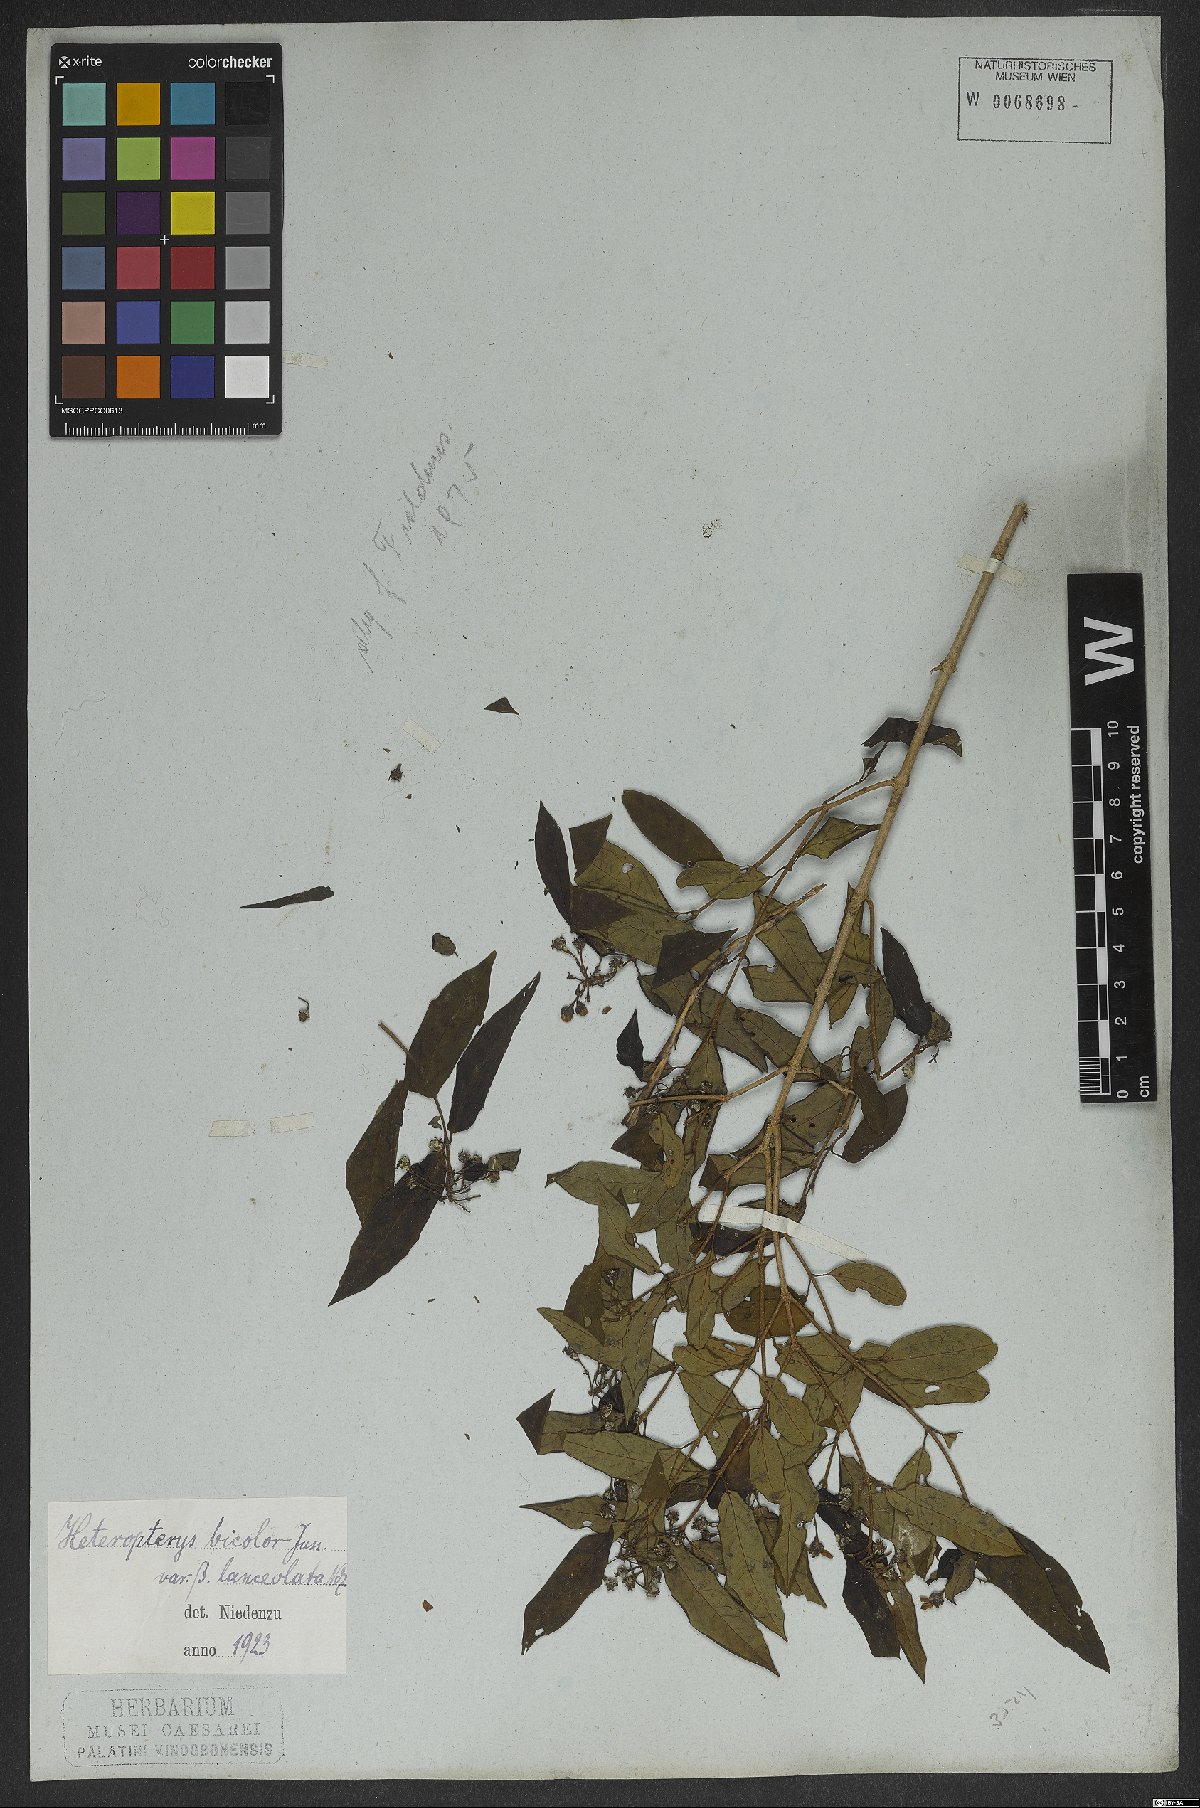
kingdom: Plantae
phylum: Tracheophyta
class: Magnoliopsida
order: Malpighiales
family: Malpighiaceae
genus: Heteropterys
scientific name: Heteropterys bicolor
